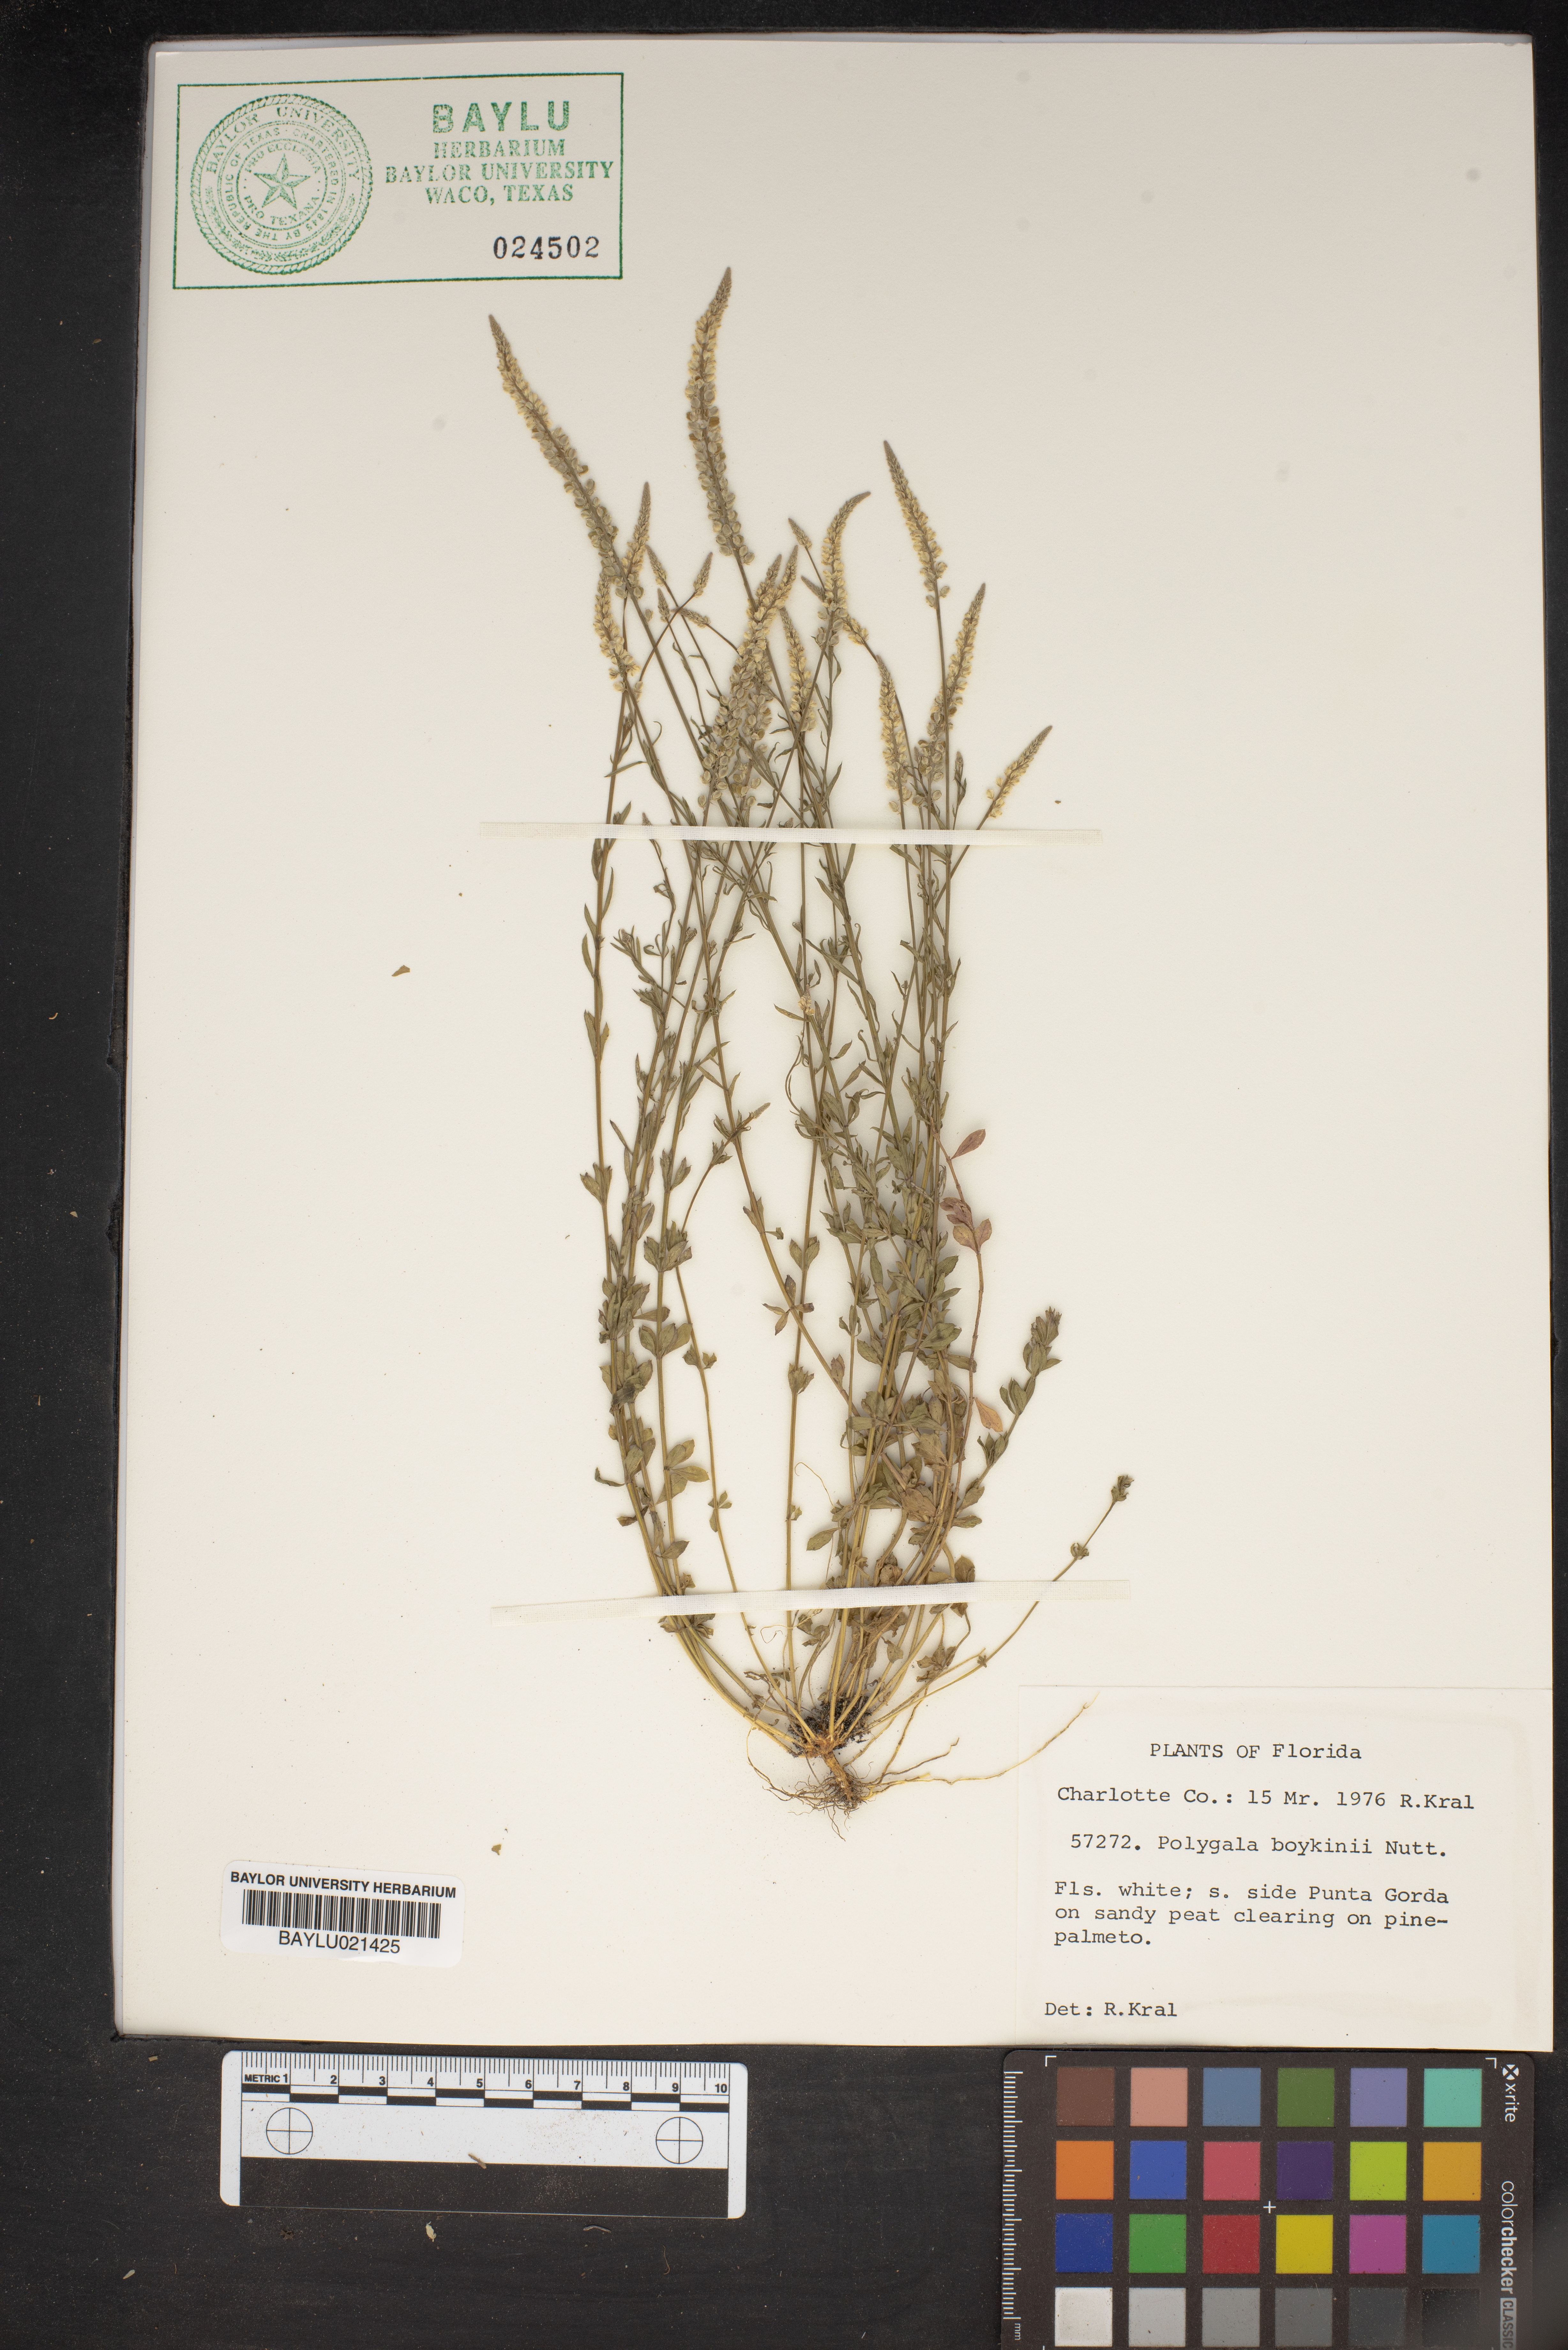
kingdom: Plantae
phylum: Tracheophyta
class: Magnoliopsida
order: Fabales
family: Polygalaceae
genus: Polygala
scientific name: Polygala boykinii
